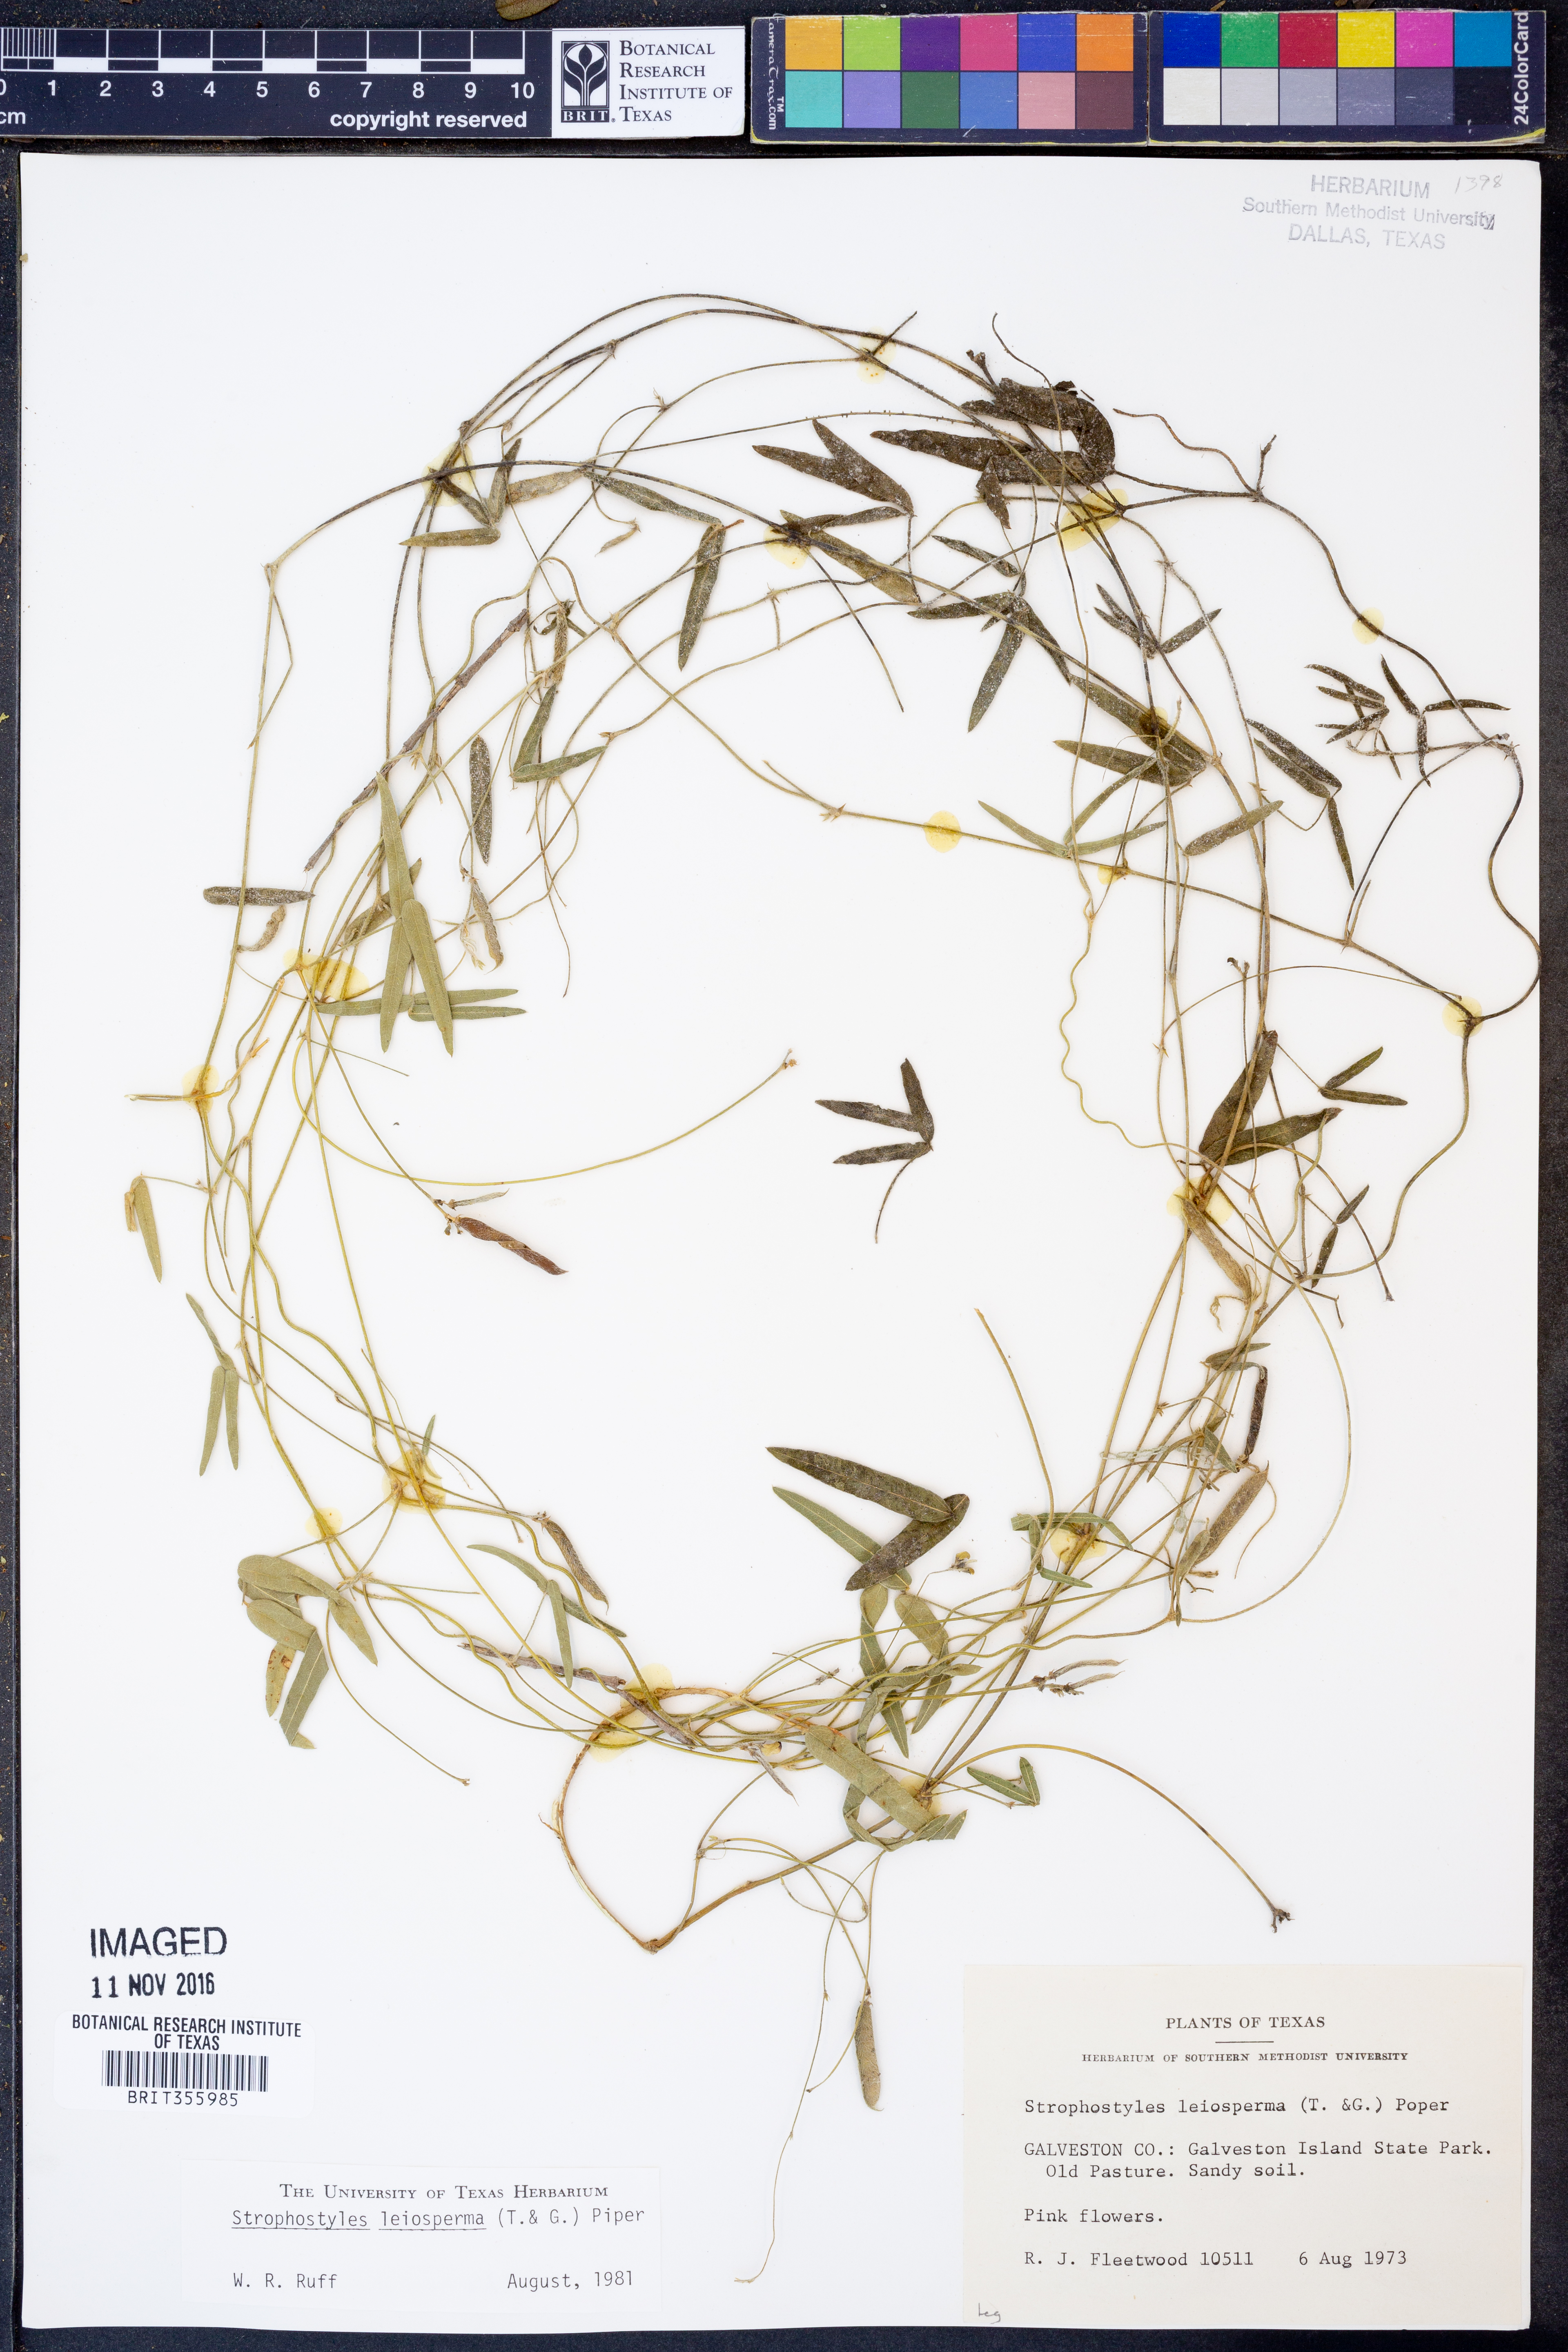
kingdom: Plantae
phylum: Tracheophyta
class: Magnoliopsida
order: Fabales
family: Fabaceae
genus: Strophostyles
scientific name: Strophostyles leiosperma
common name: Smooth-seed wild bean
